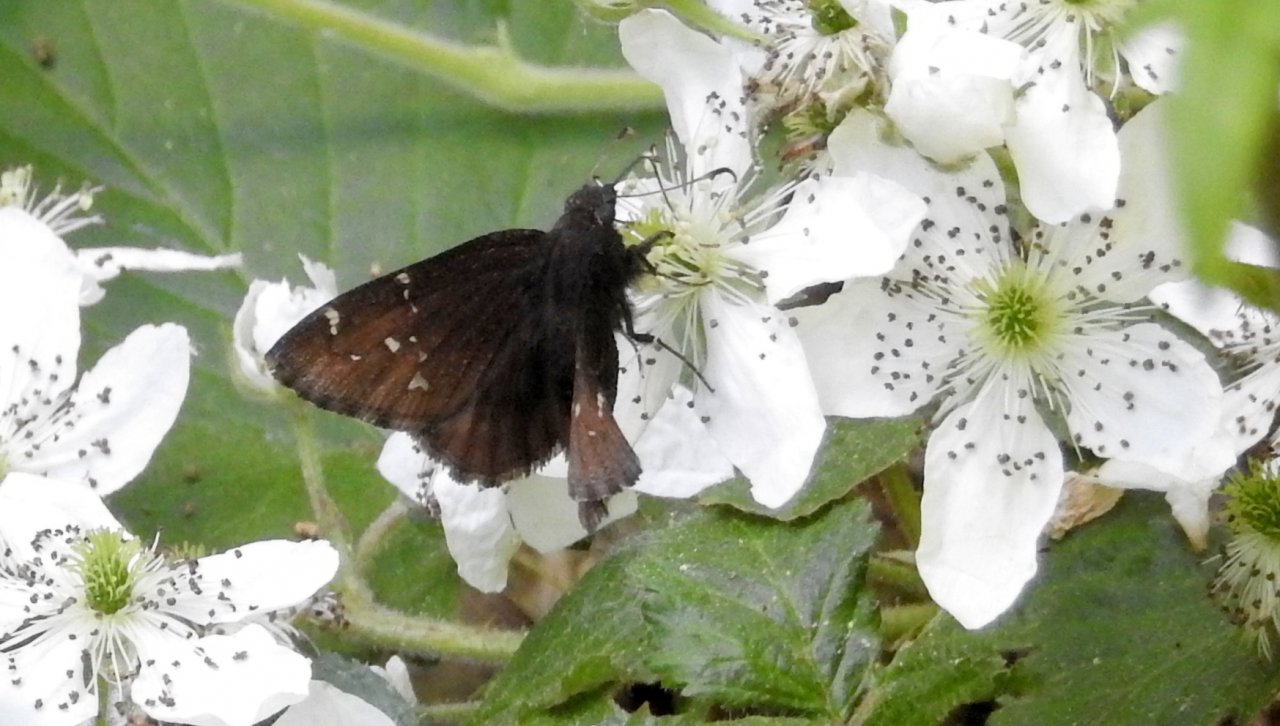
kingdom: Animalia
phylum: Arthropoda
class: Insecta
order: Lepidoptera
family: Hesperiidae
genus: Autochton
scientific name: Autochton
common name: Northern Cloudywing
